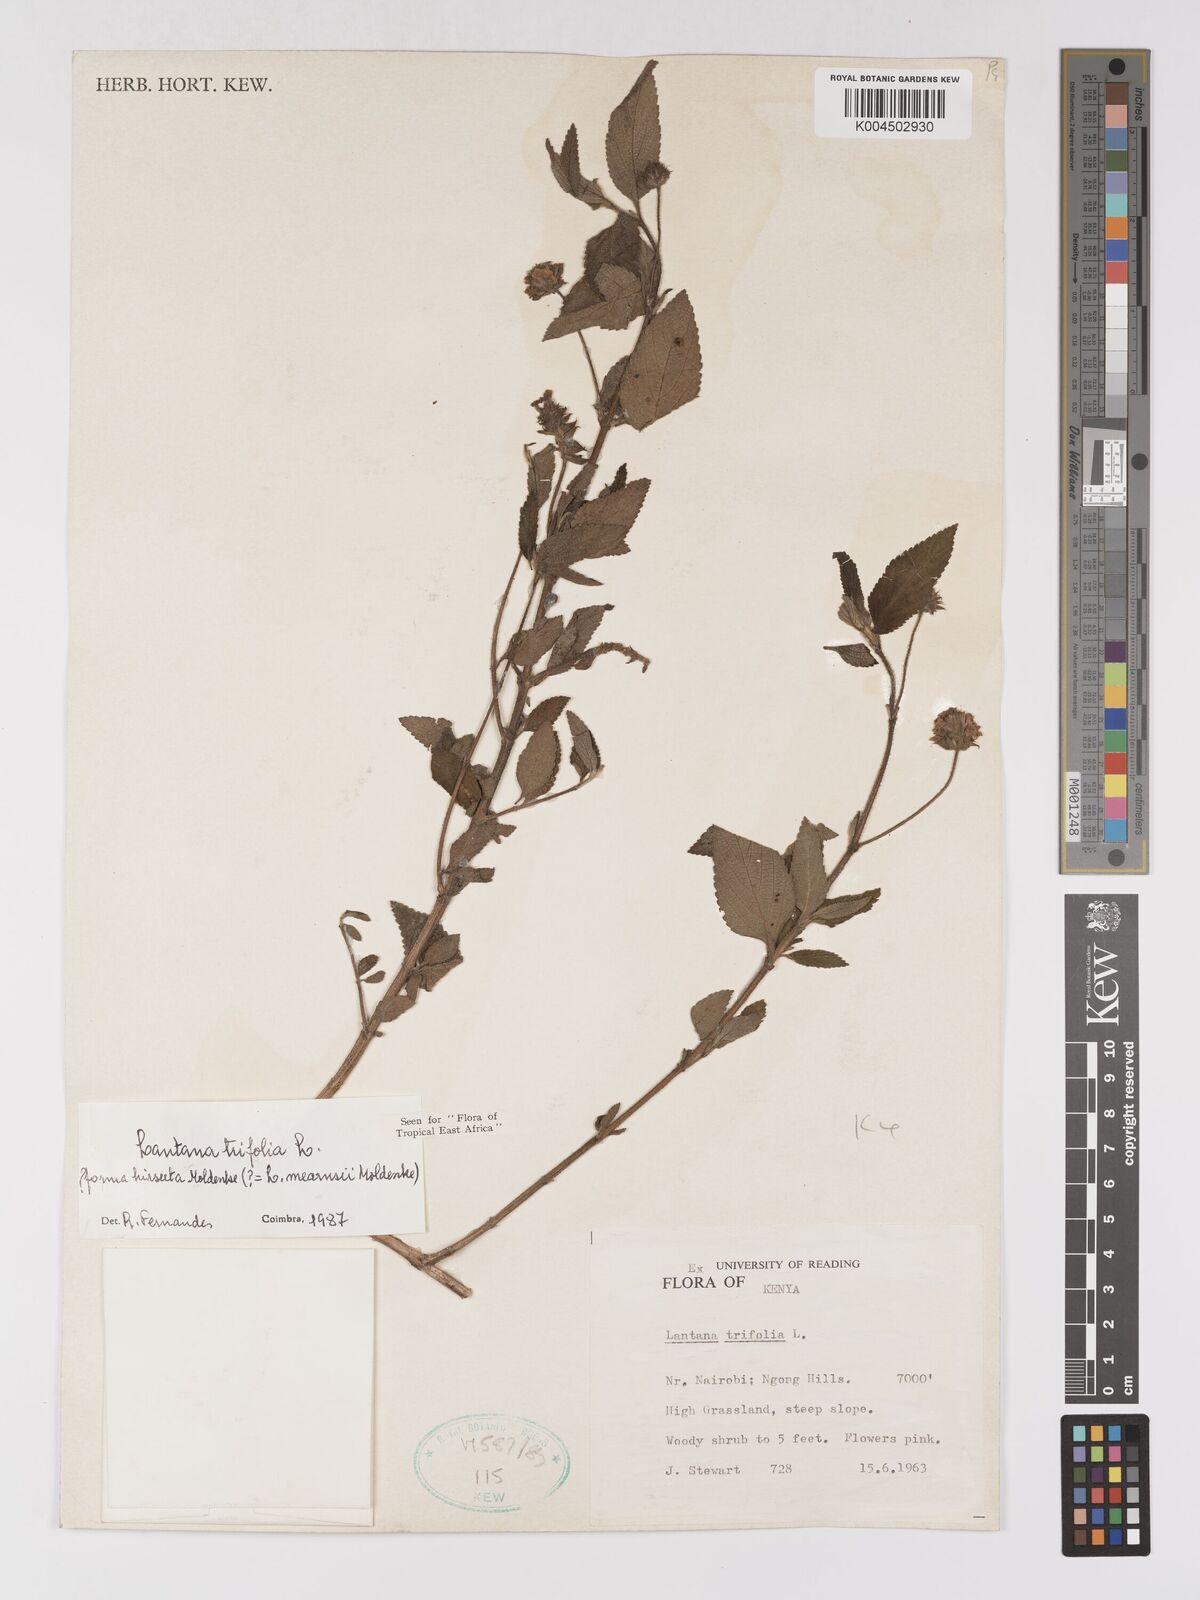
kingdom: Plantae
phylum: Tracheophyta
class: Magnoliopsida
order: Lamiales
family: Verbenaceae
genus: Lantana
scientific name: Lantana trifolia
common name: Sweet-sage
